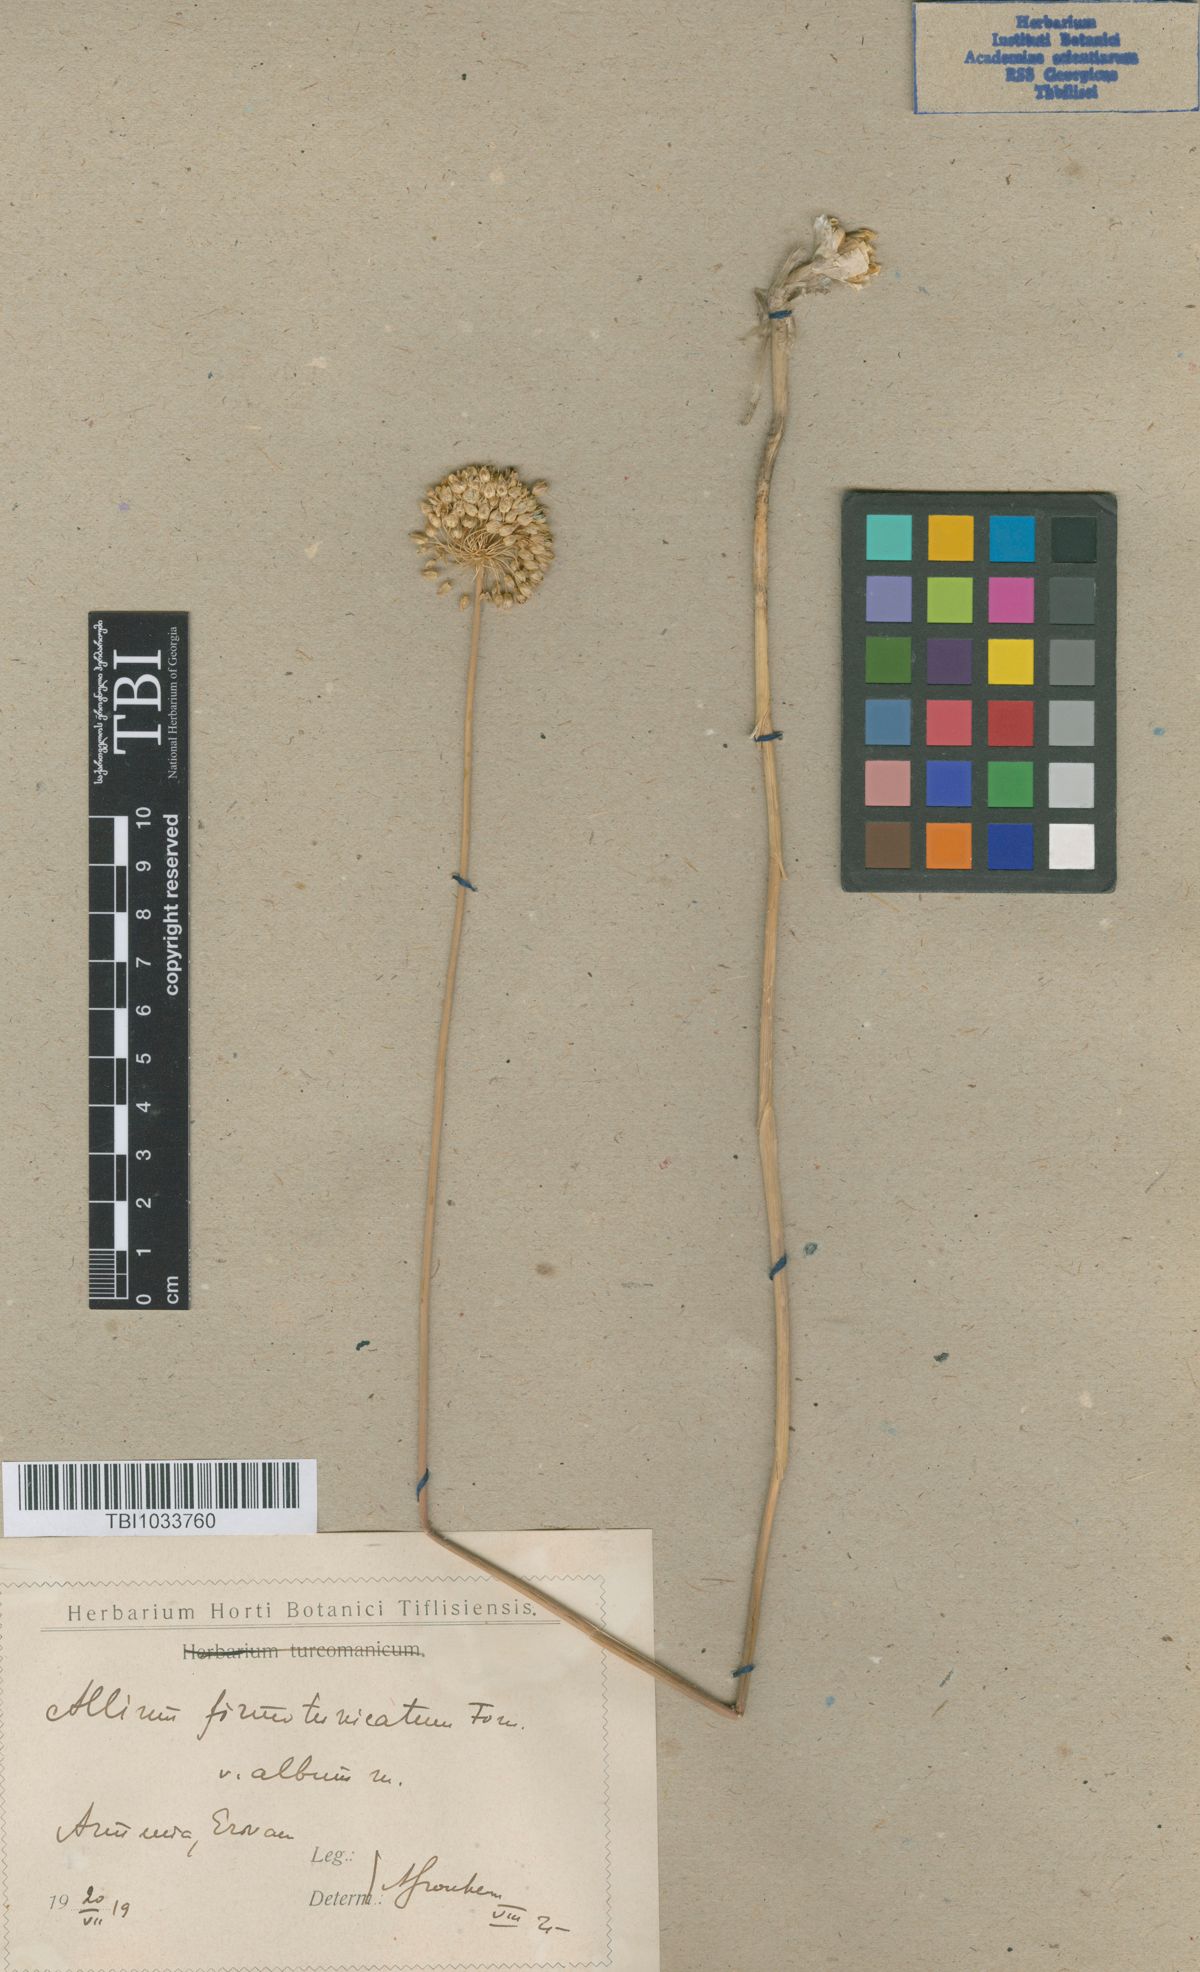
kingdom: Plantae
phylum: Tracheophyta
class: Liliopsida
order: Asparagales
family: Amaryllidaceae
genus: Allium
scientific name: Allium ampeloprasum
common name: Wild leek
